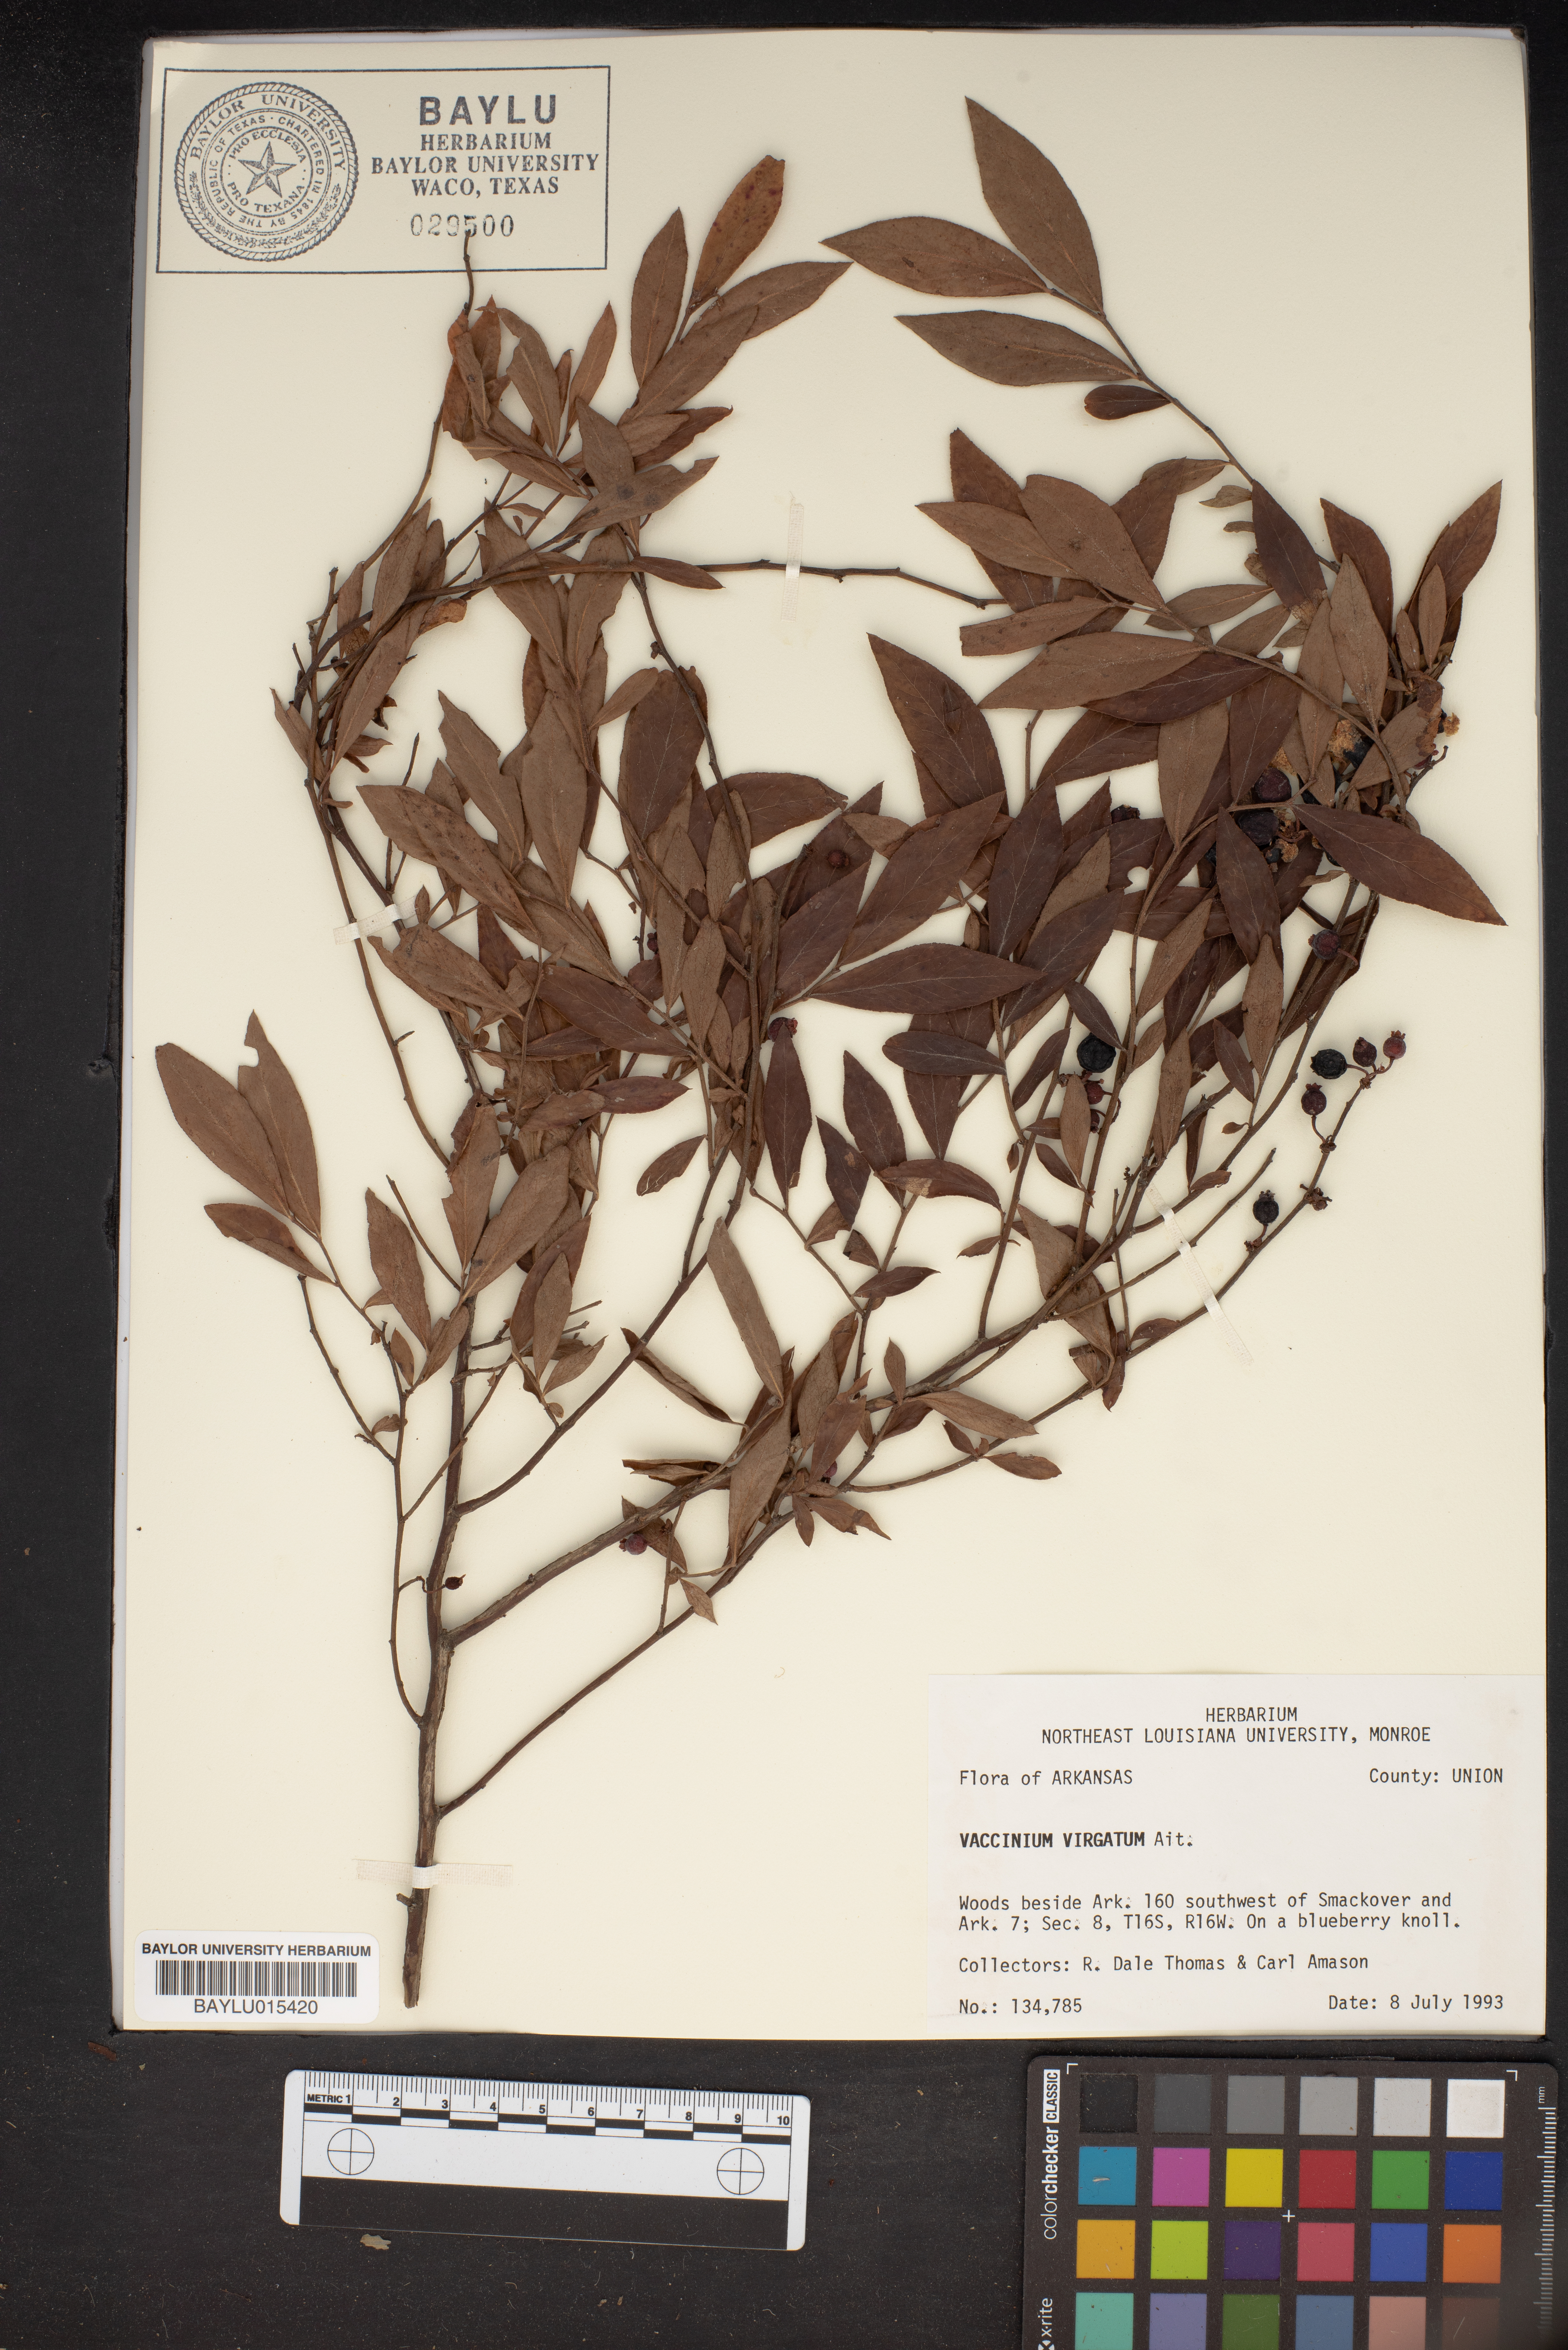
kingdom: Plantae
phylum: Tracheophyta
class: Magnoliopsida
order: Ericales
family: Ericaceae
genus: Vaccinium
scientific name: Vaccinium corymbosum
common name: Blueberry
